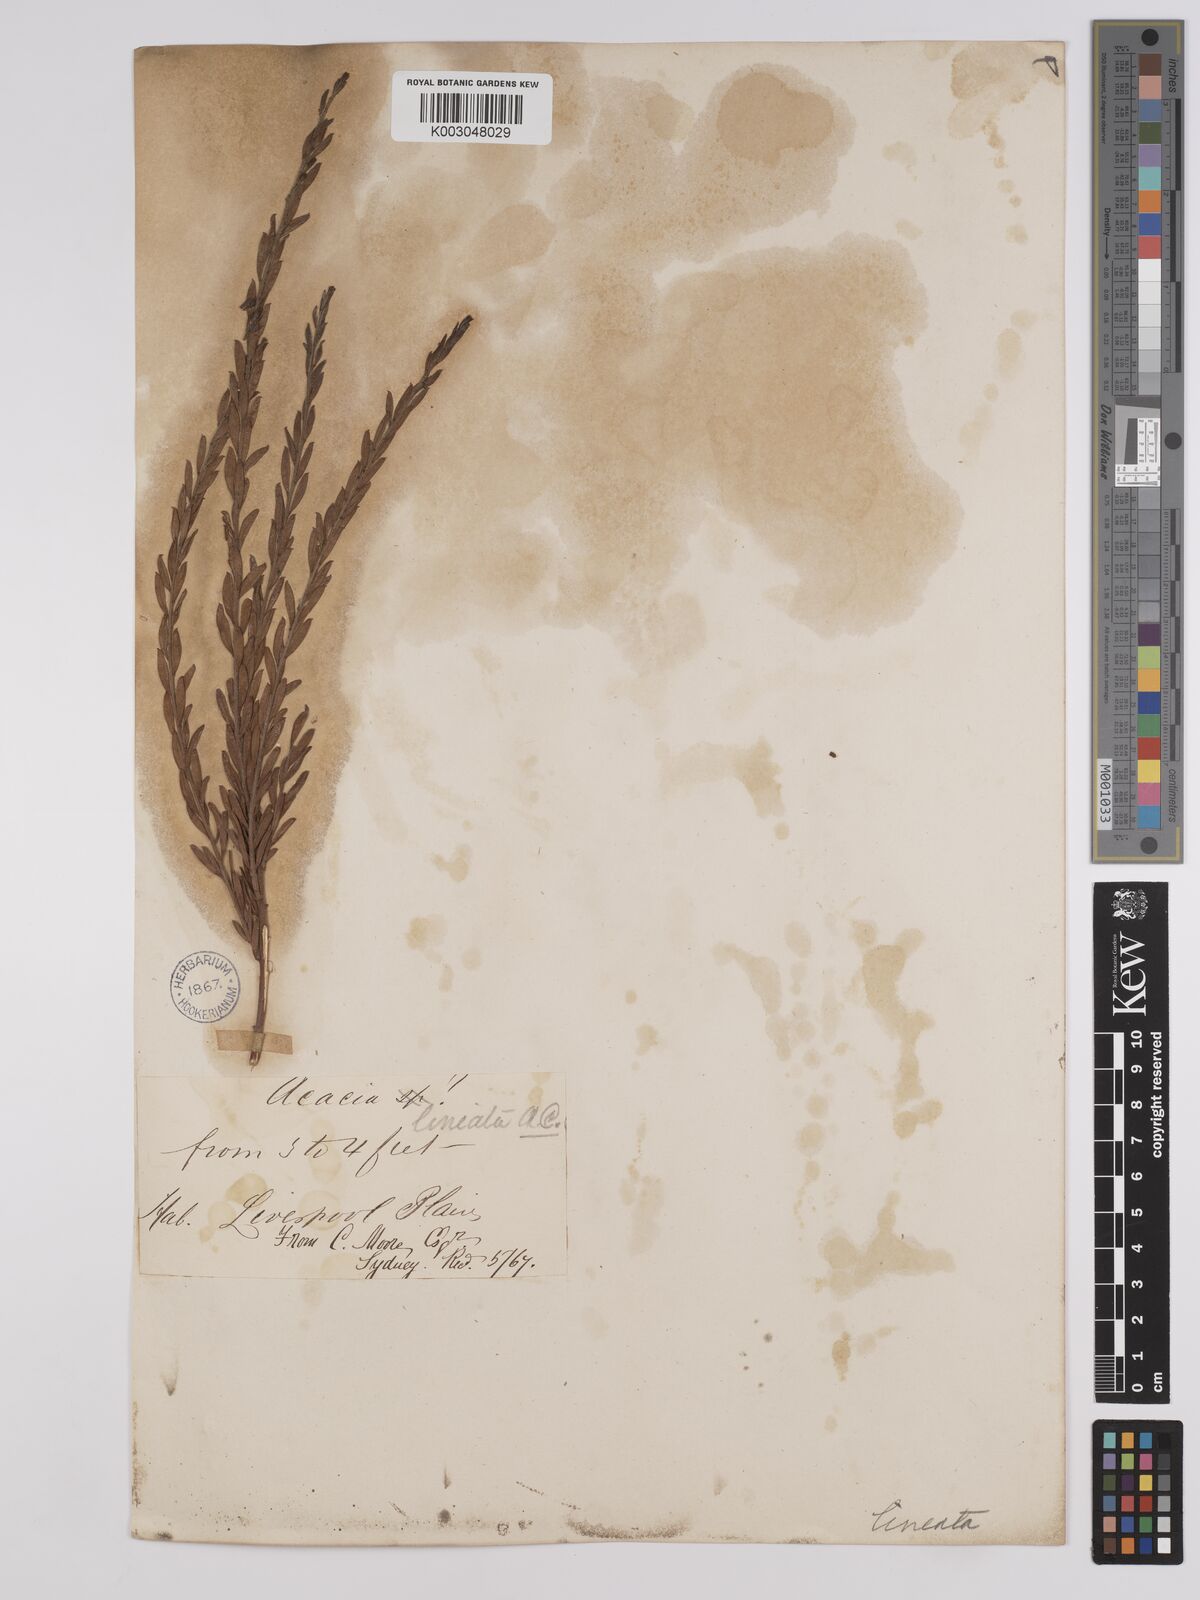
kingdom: Plantae
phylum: Tracheophyta
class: Magnoliopsida
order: Fabales
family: Fabaceae
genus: Acacia
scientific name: Acacia lineata
